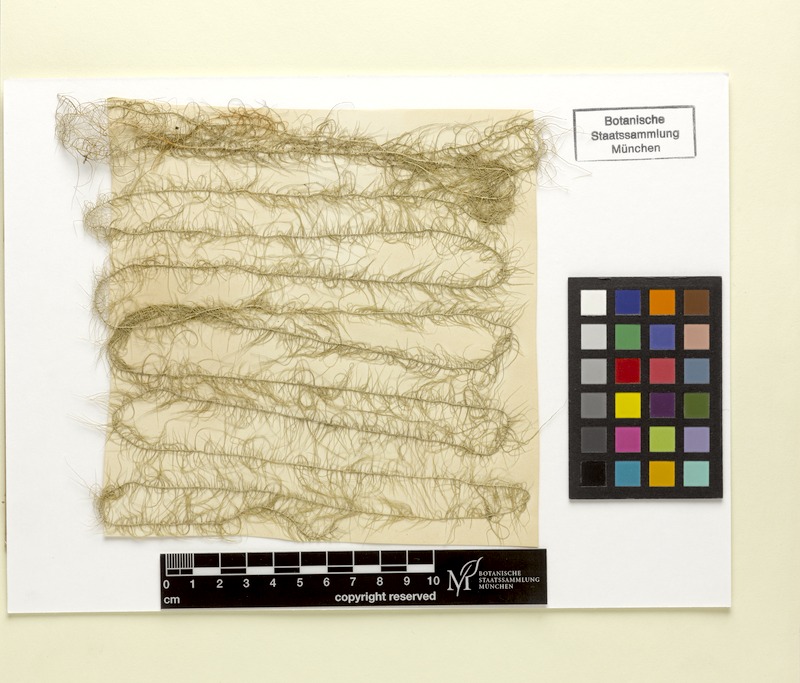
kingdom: Fungi
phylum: Ascomycota
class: Lecanoromycetes
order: Lecanorales
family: Parmeliaceae
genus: Dolichousnea
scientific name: Dolichousnea longissima
